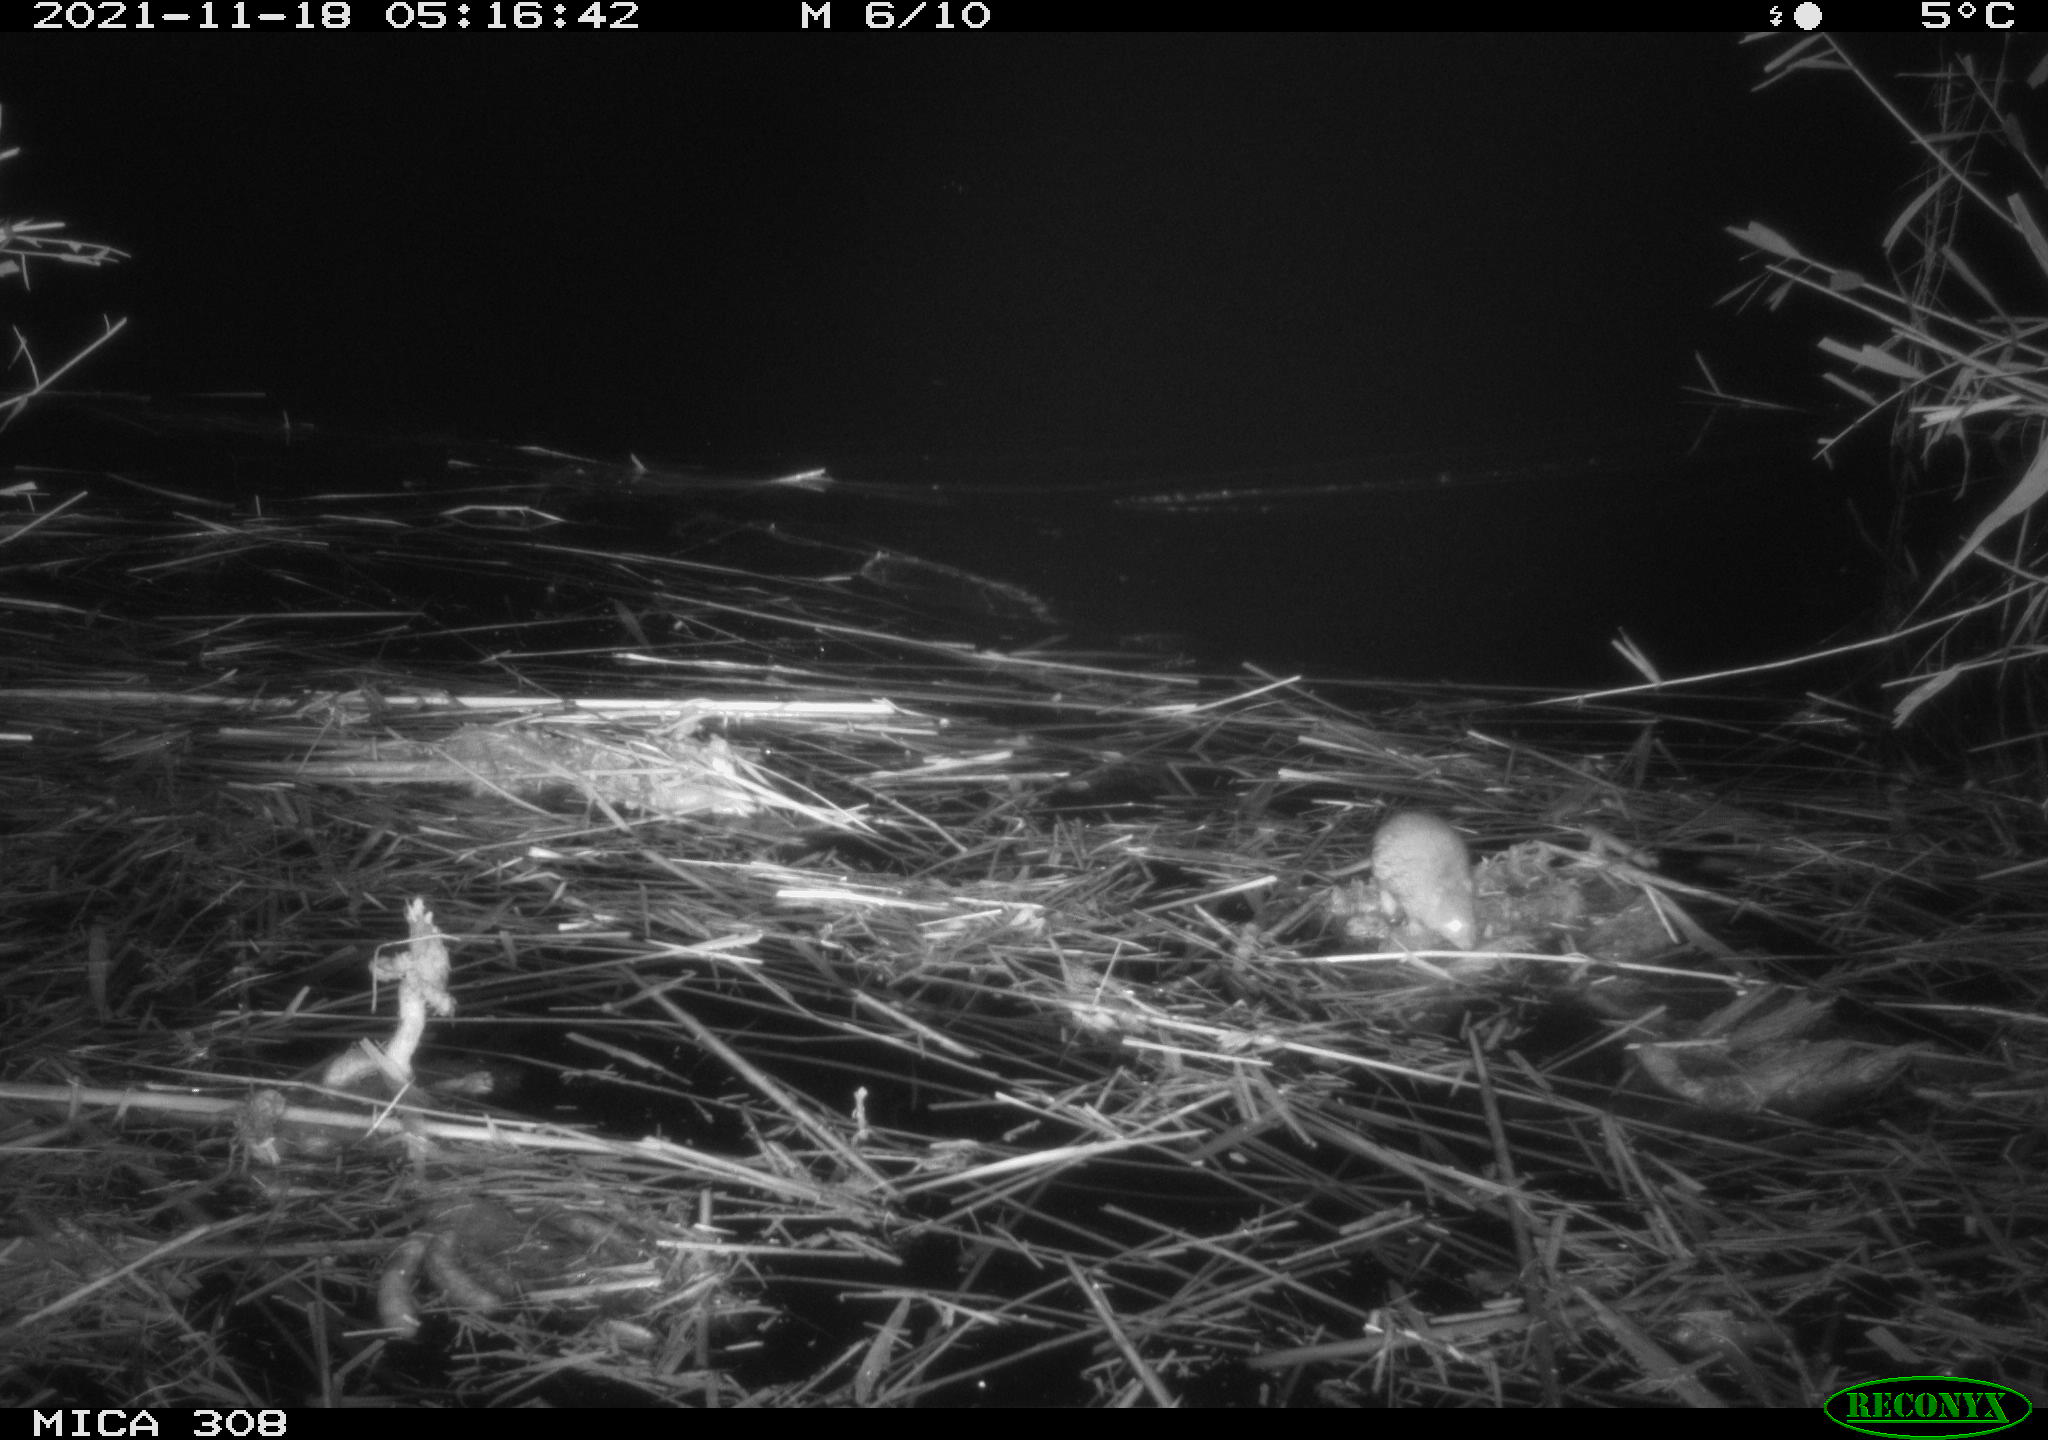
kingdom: Animalia
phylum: Chordata
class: Mammalia
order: Rodentia
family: Muridae
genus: Rattus
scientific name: Rattus norvegicus
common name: Brown rat
